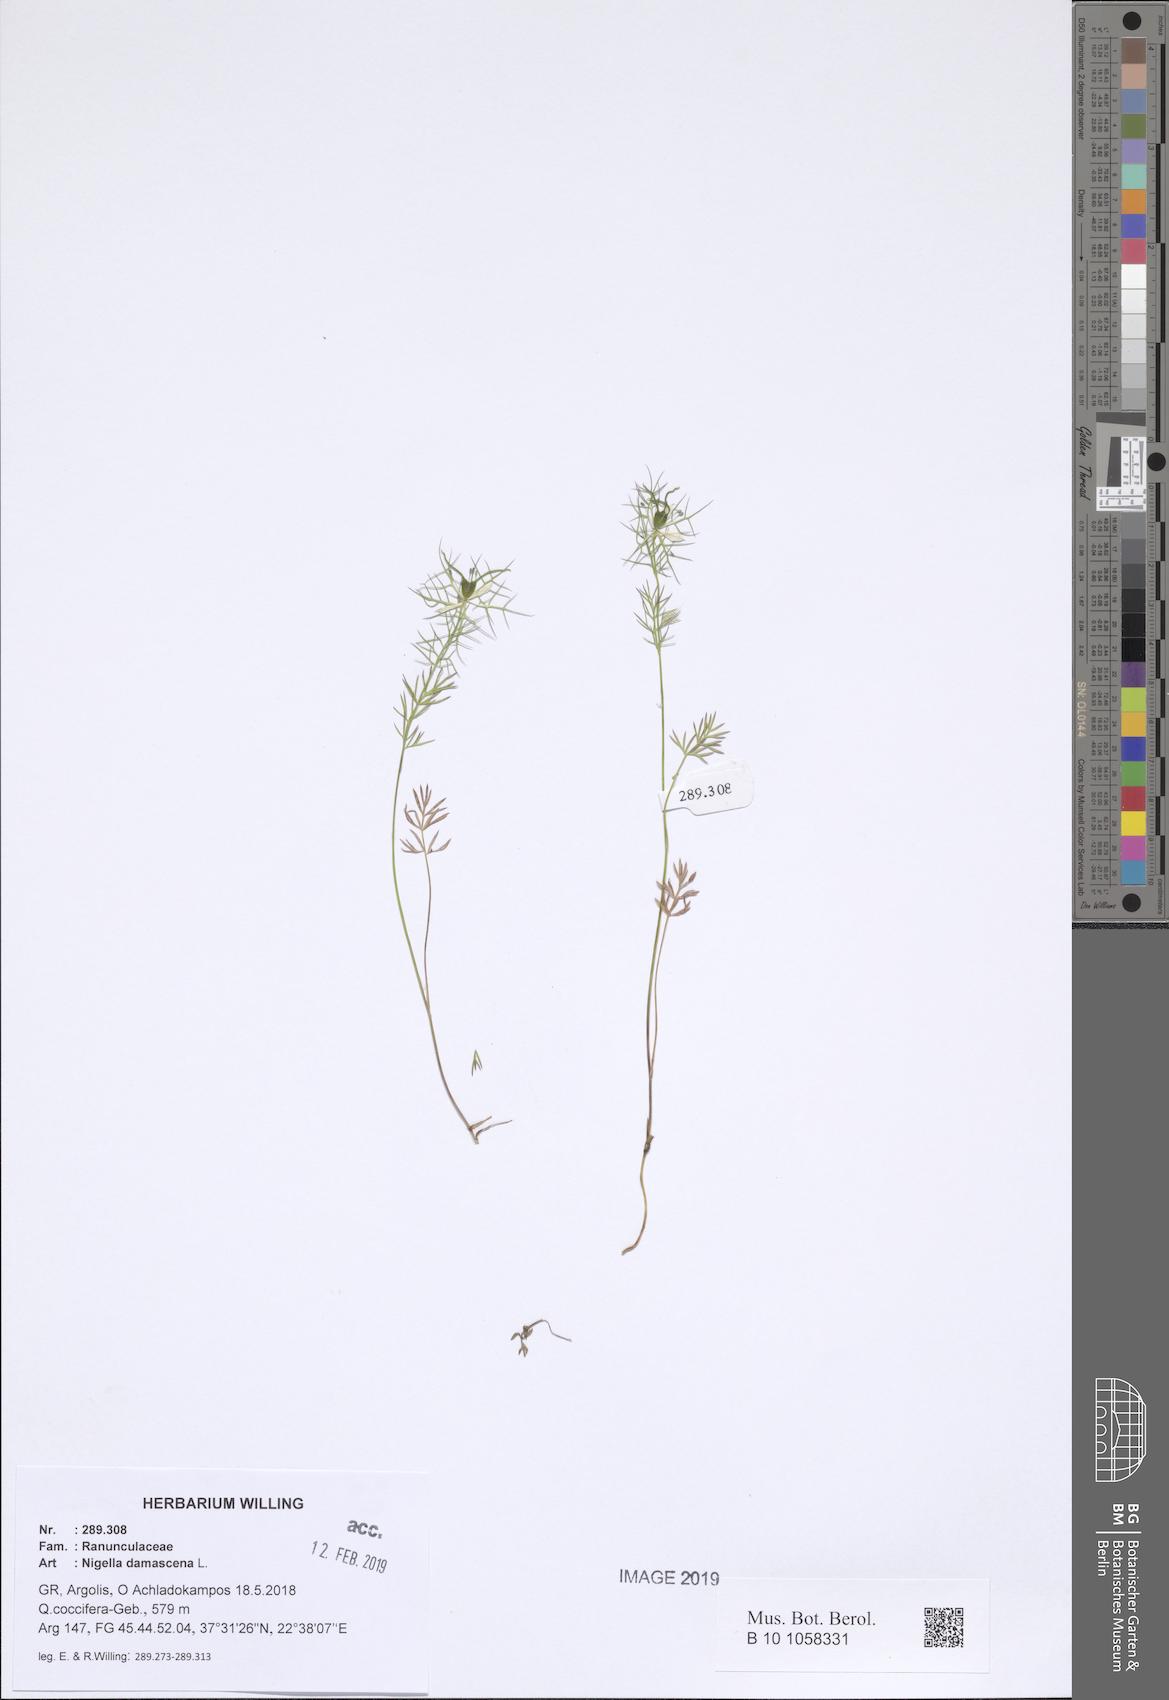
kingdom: Plantae
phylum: Tracheophyta
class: Magnoliopsida
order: Ranunculales
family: Ranunculaceae
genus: Nigella
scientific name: Nigella damascena
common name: Love-in-a-mist
